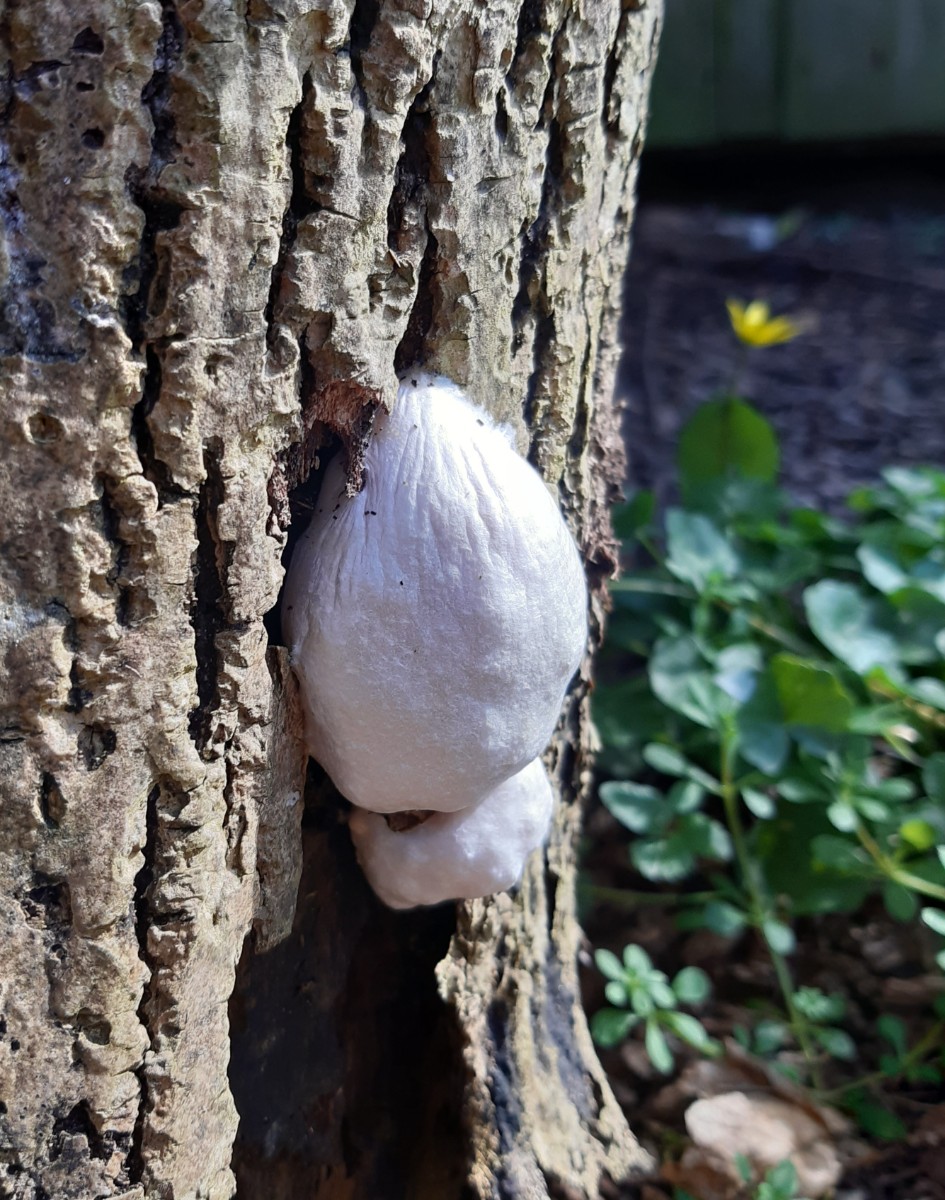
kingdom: Protozoa
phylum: Mycetozoa
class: Myxomycetes
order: Cribrariales
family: Tubiferaceae
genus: Reticularia
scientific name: Reticularia lycoperdon
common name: skinnende støvpude
